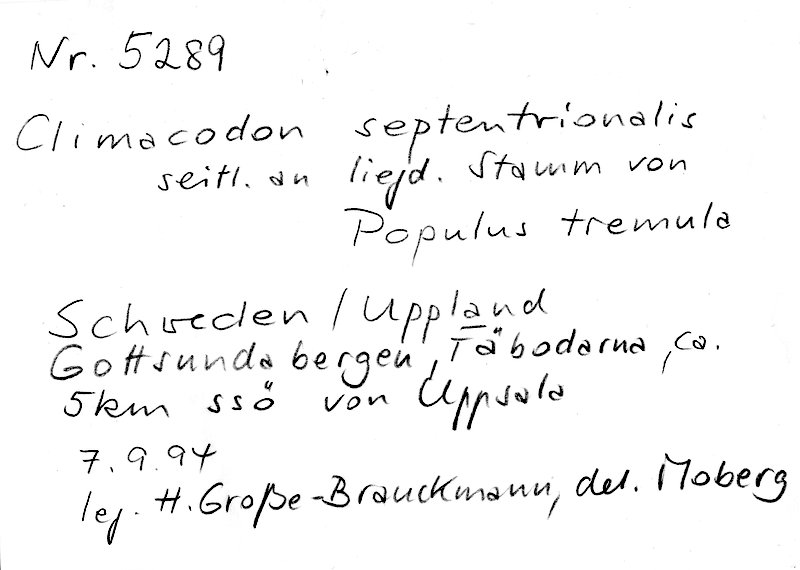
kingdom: Plantae
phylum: Tracheophyta
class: Magnoliopsida
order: Malpighiales
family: Salicaceae
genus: Populus
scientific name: Populus tremula
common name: European aspen
